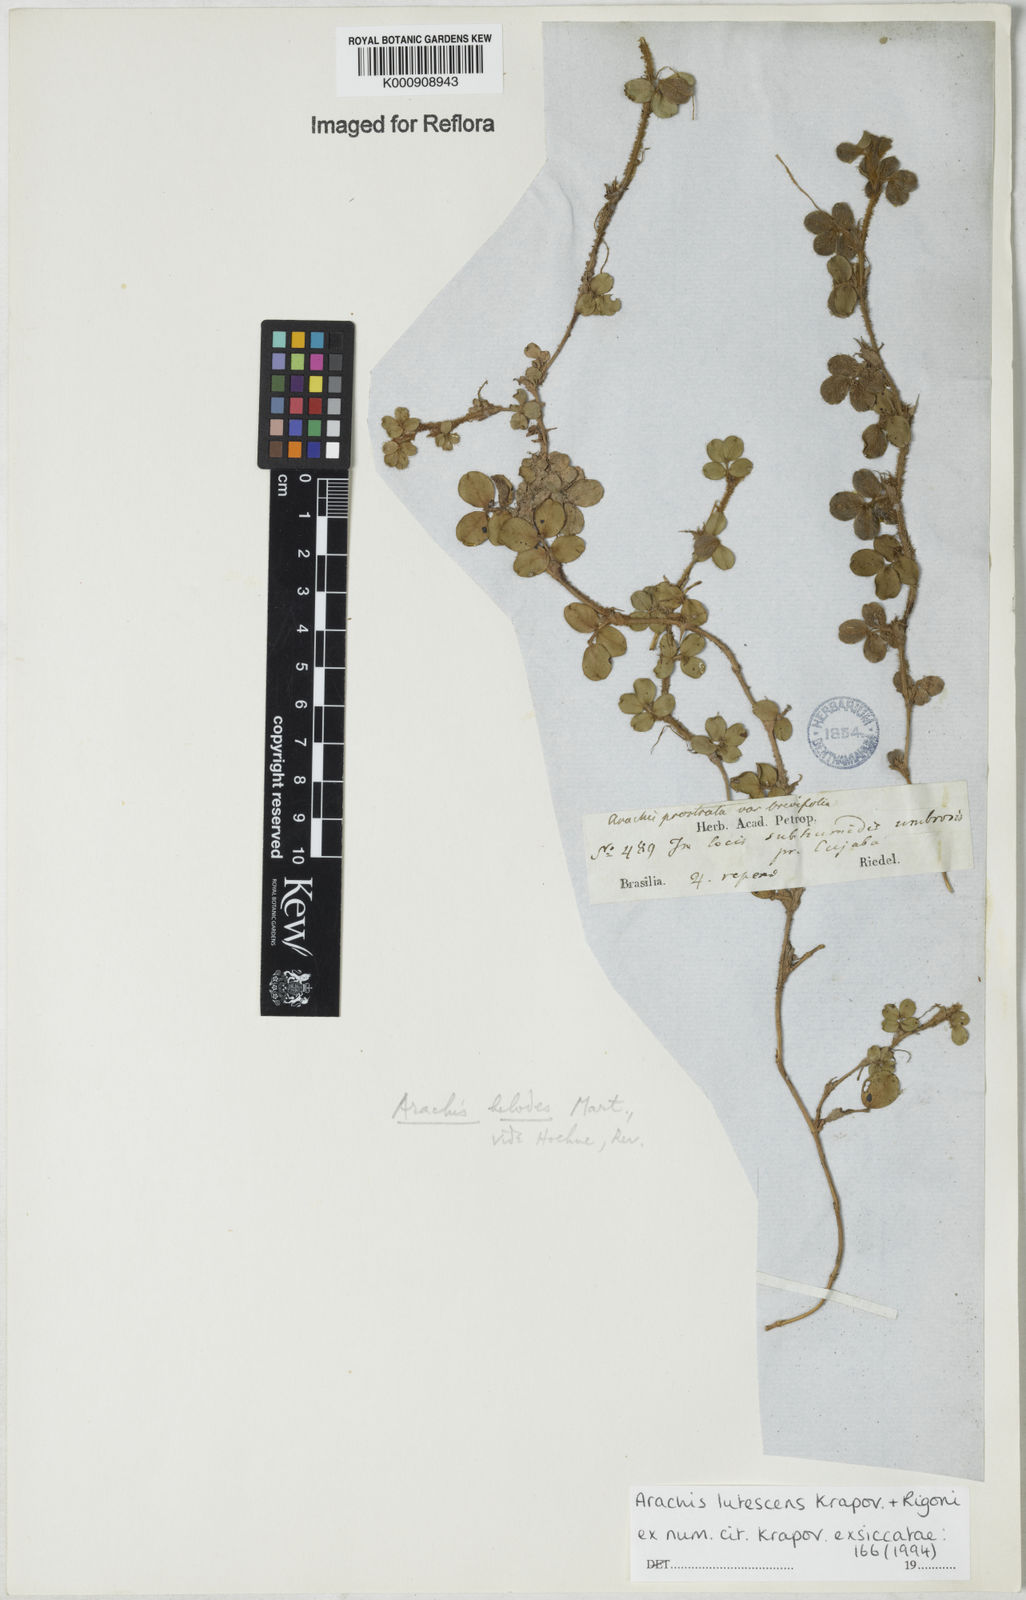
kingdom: Plantae
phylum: Tracheophyta
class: Magnoliopsida
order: Fabales
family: Fabaceae
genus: Arachis
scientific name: Arachis lutescens
